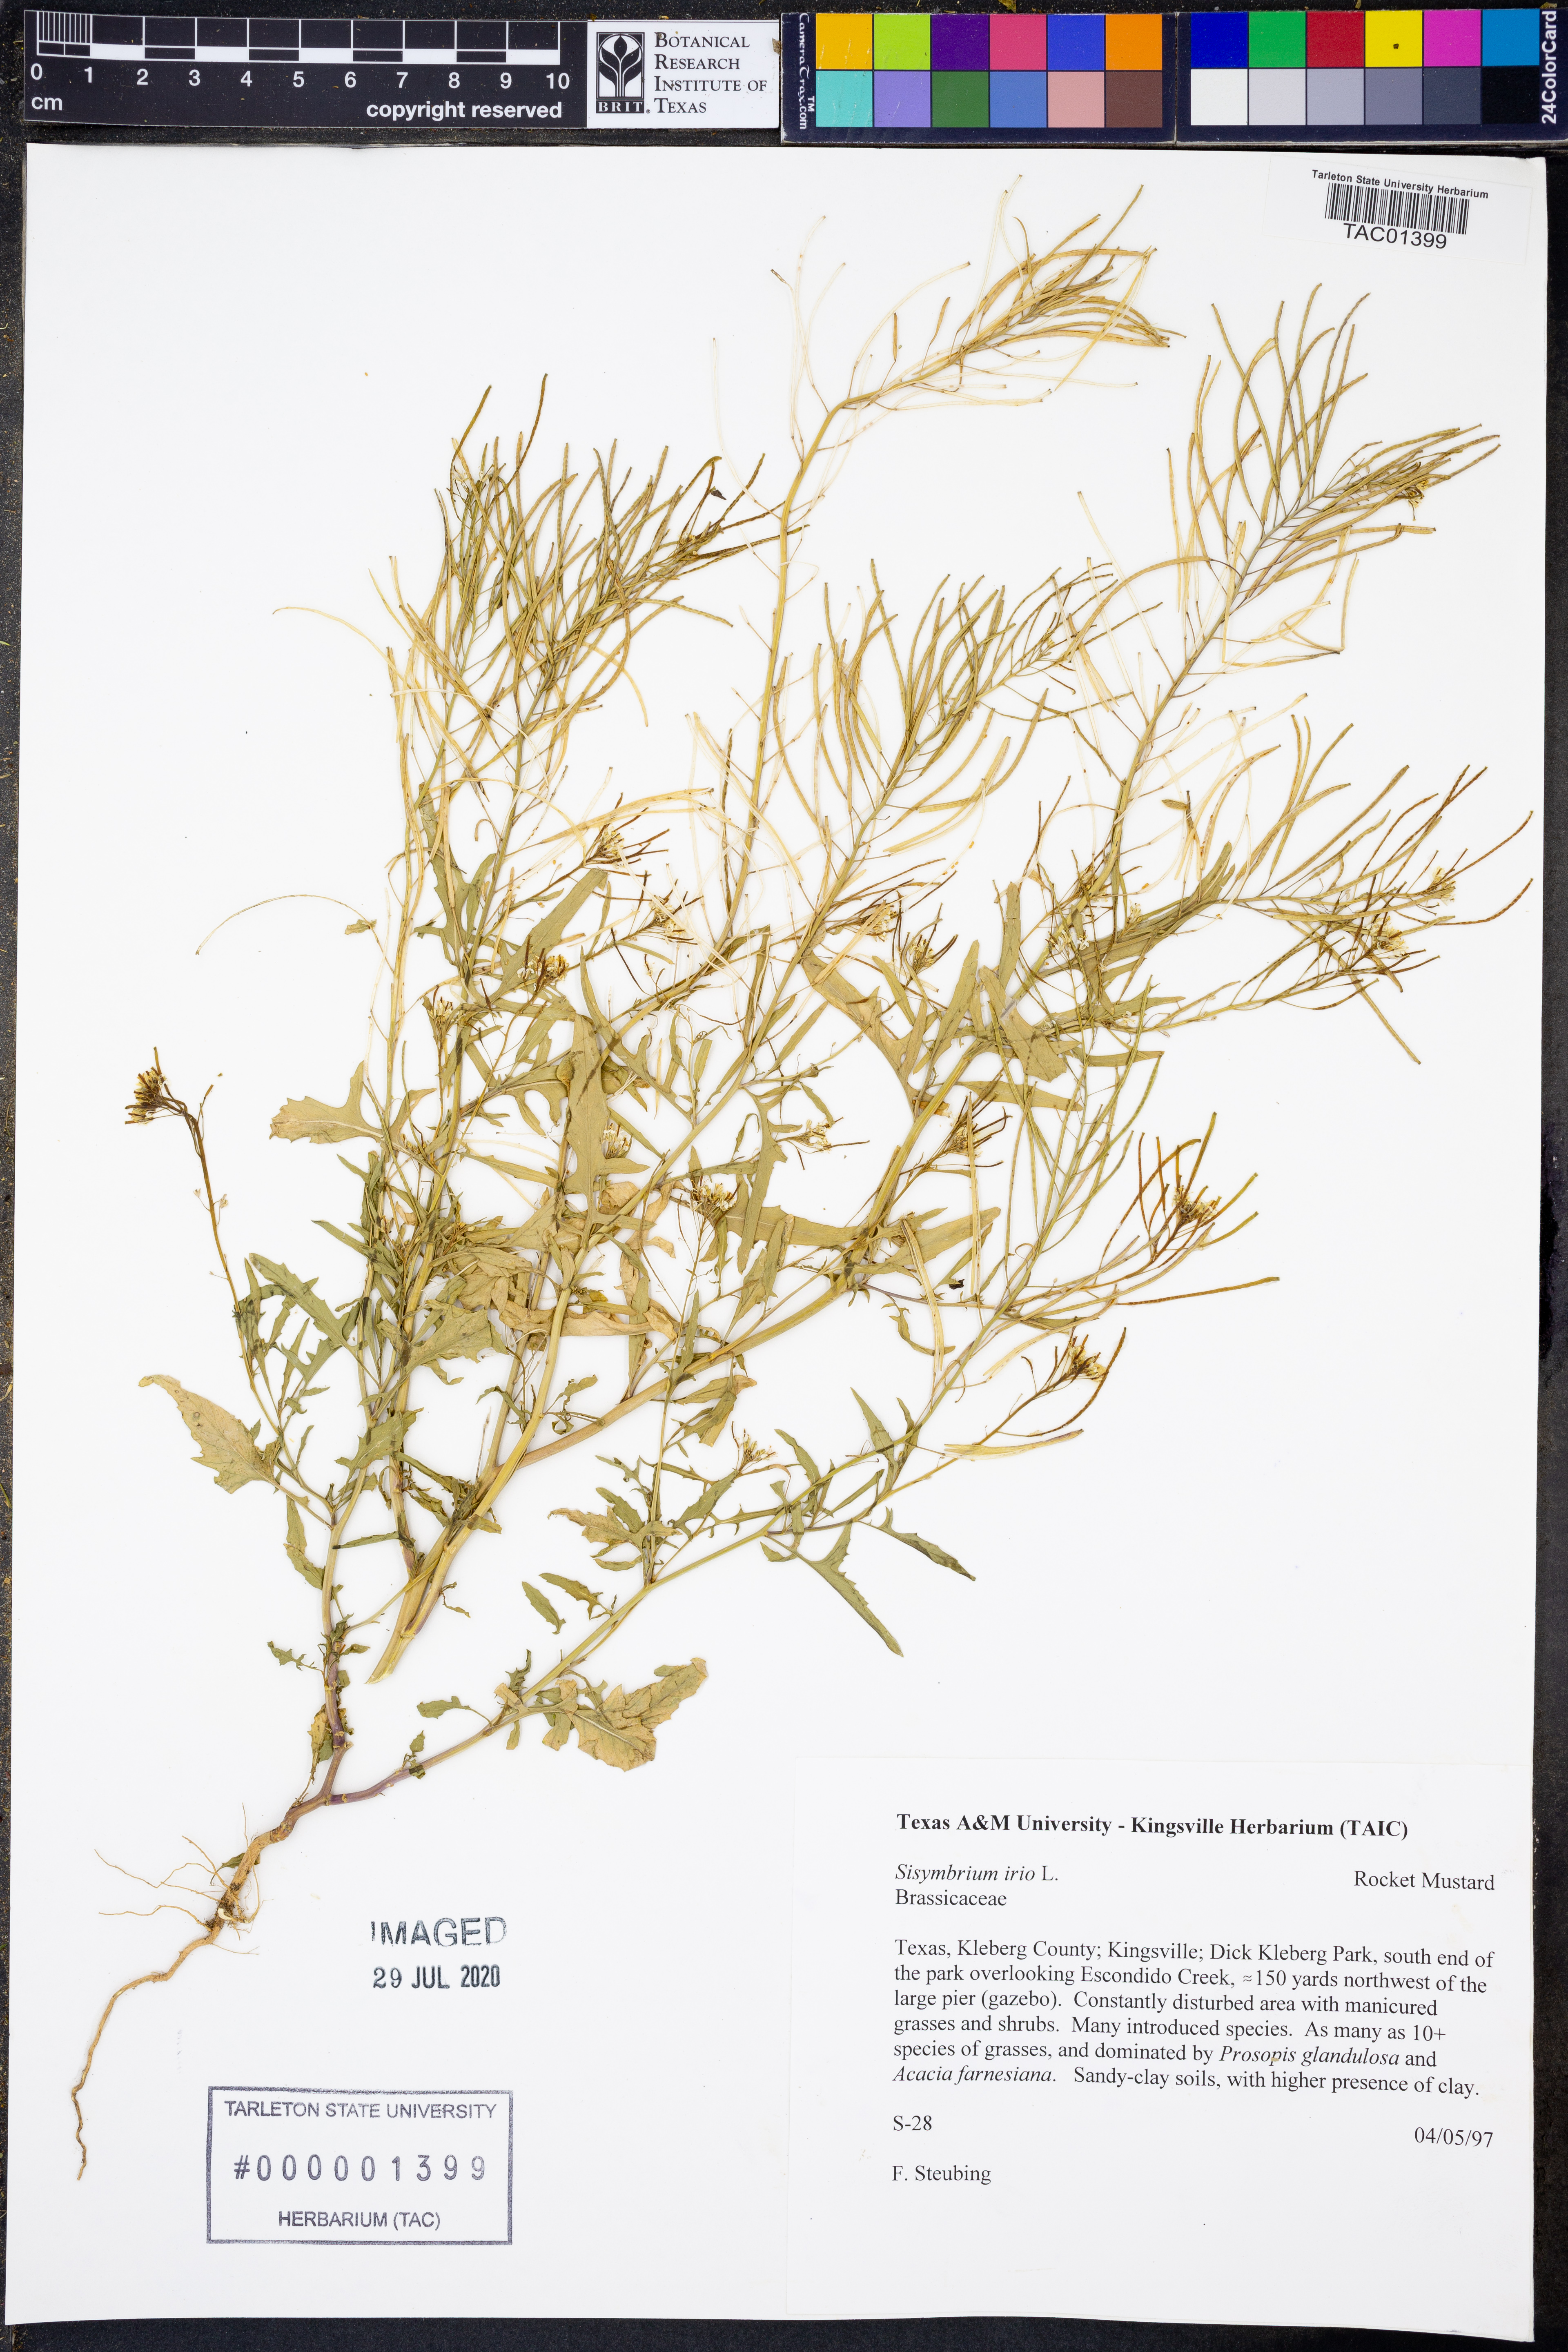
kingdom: Plantae
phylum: Tracheophyta
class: Magnoliopsida
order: Brassicales
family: Brassicaceae
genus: Sisymbrium
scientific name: Sisymbrium irio
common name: London rocket
